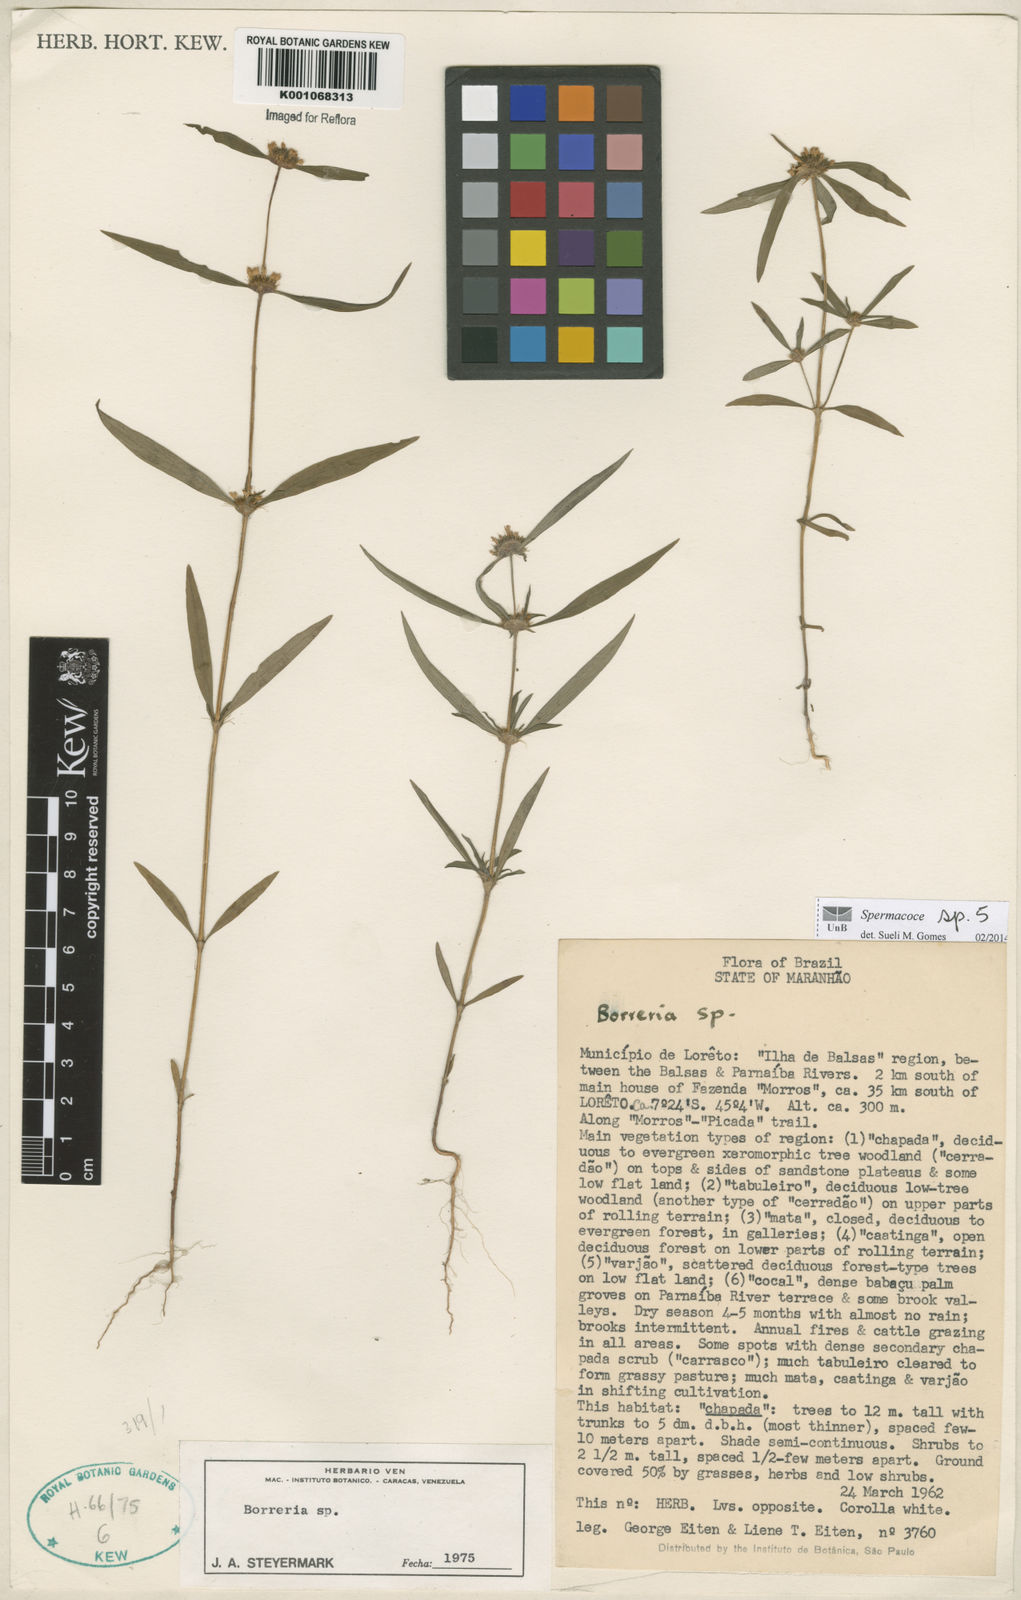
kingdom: Plantae
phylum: Tracheophyta
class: Magnoliopsida
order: Gentianales
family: Rubiaceae
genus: Spermacoce
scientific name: Spermacoce
